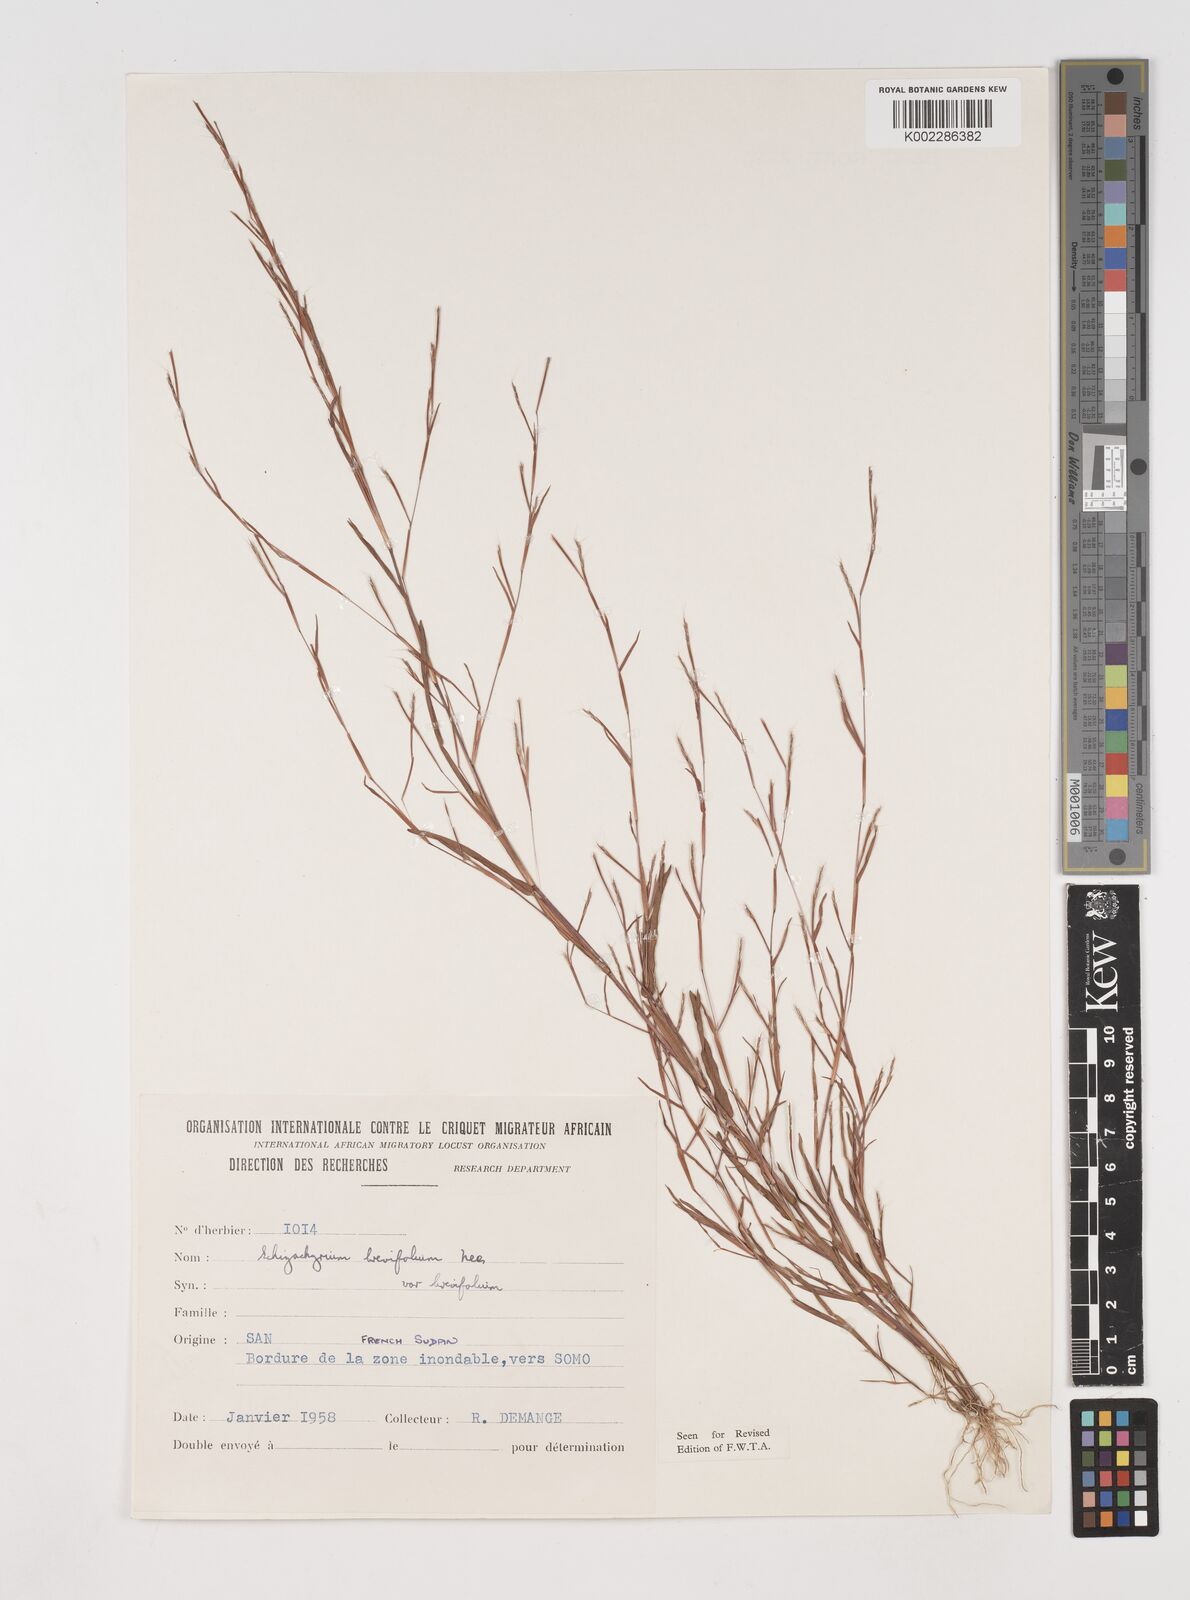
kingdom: Plantae
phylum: Tracheophyta
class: Liliopsida
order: Poales
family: Poaceae
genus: Schizachyrium
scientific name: Schizachyrium brevifolium
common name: Serillo dulce
